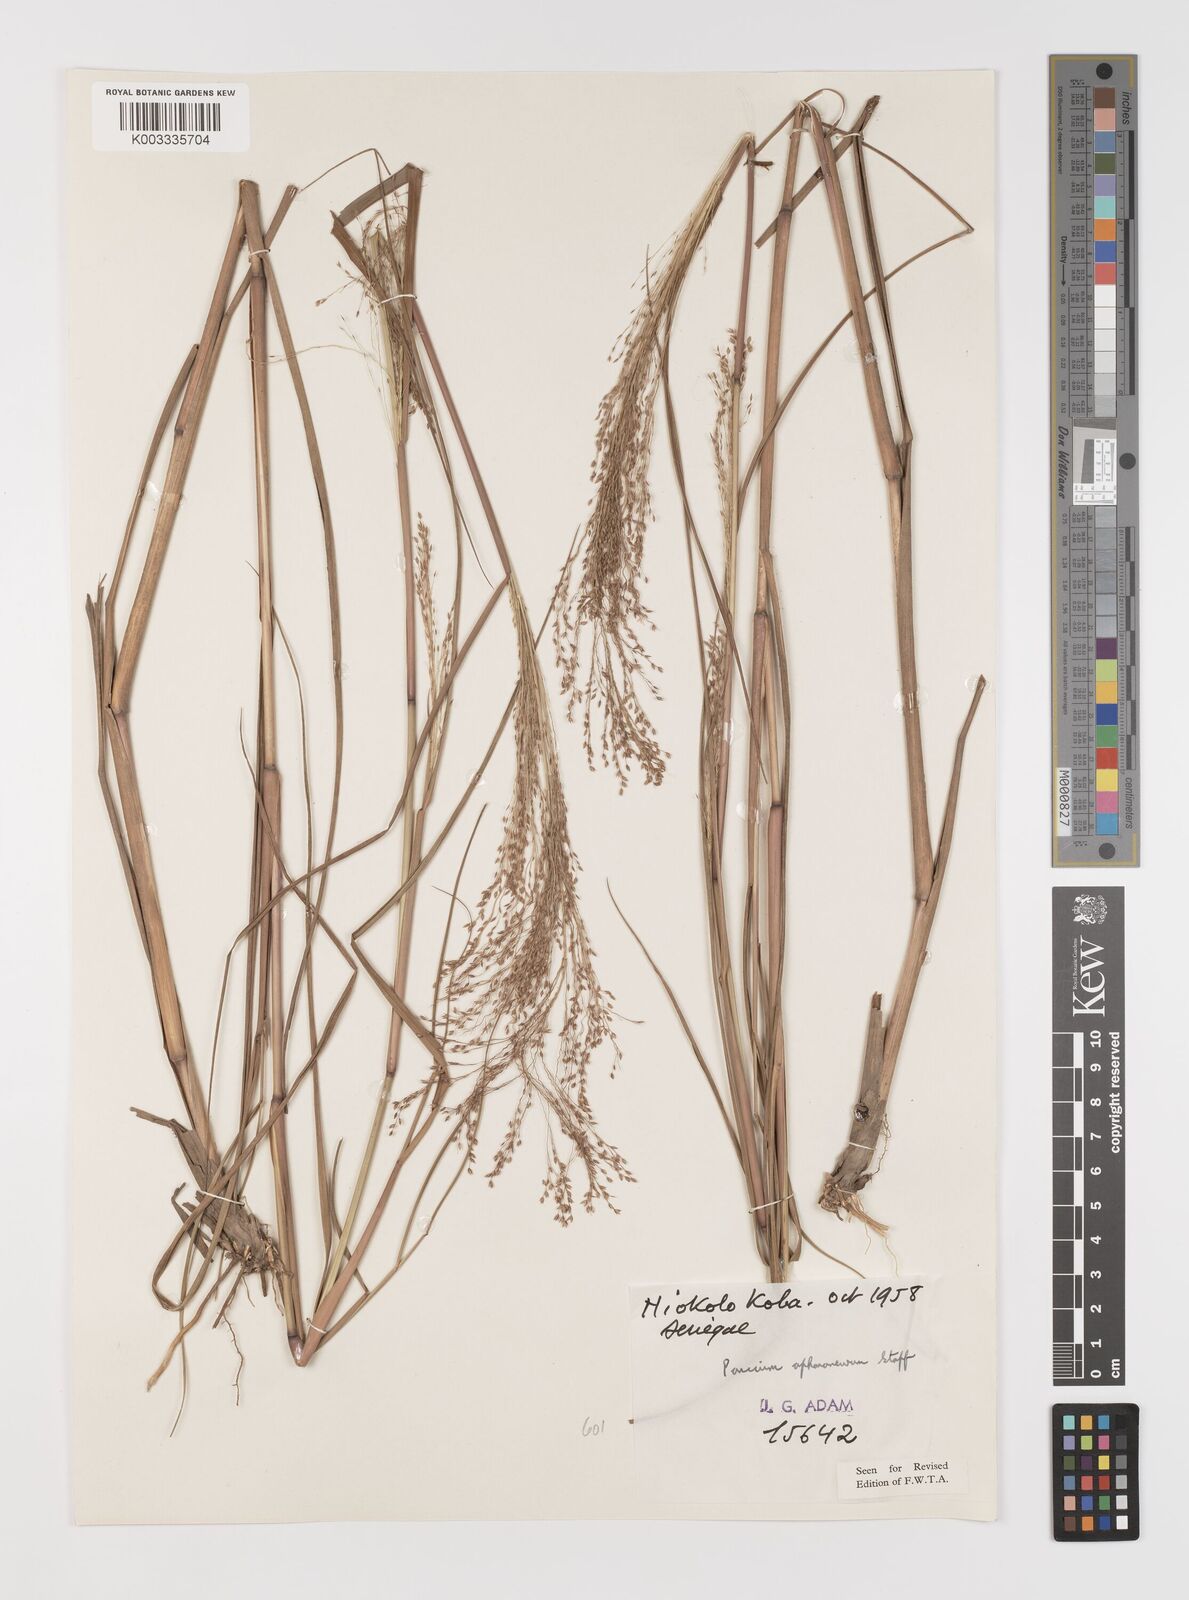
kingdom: Plantae
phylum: Tracheophyta
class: Liliopsida
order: Poales
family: Poaceae
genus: Panicum
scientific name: Panicum fluviicola
